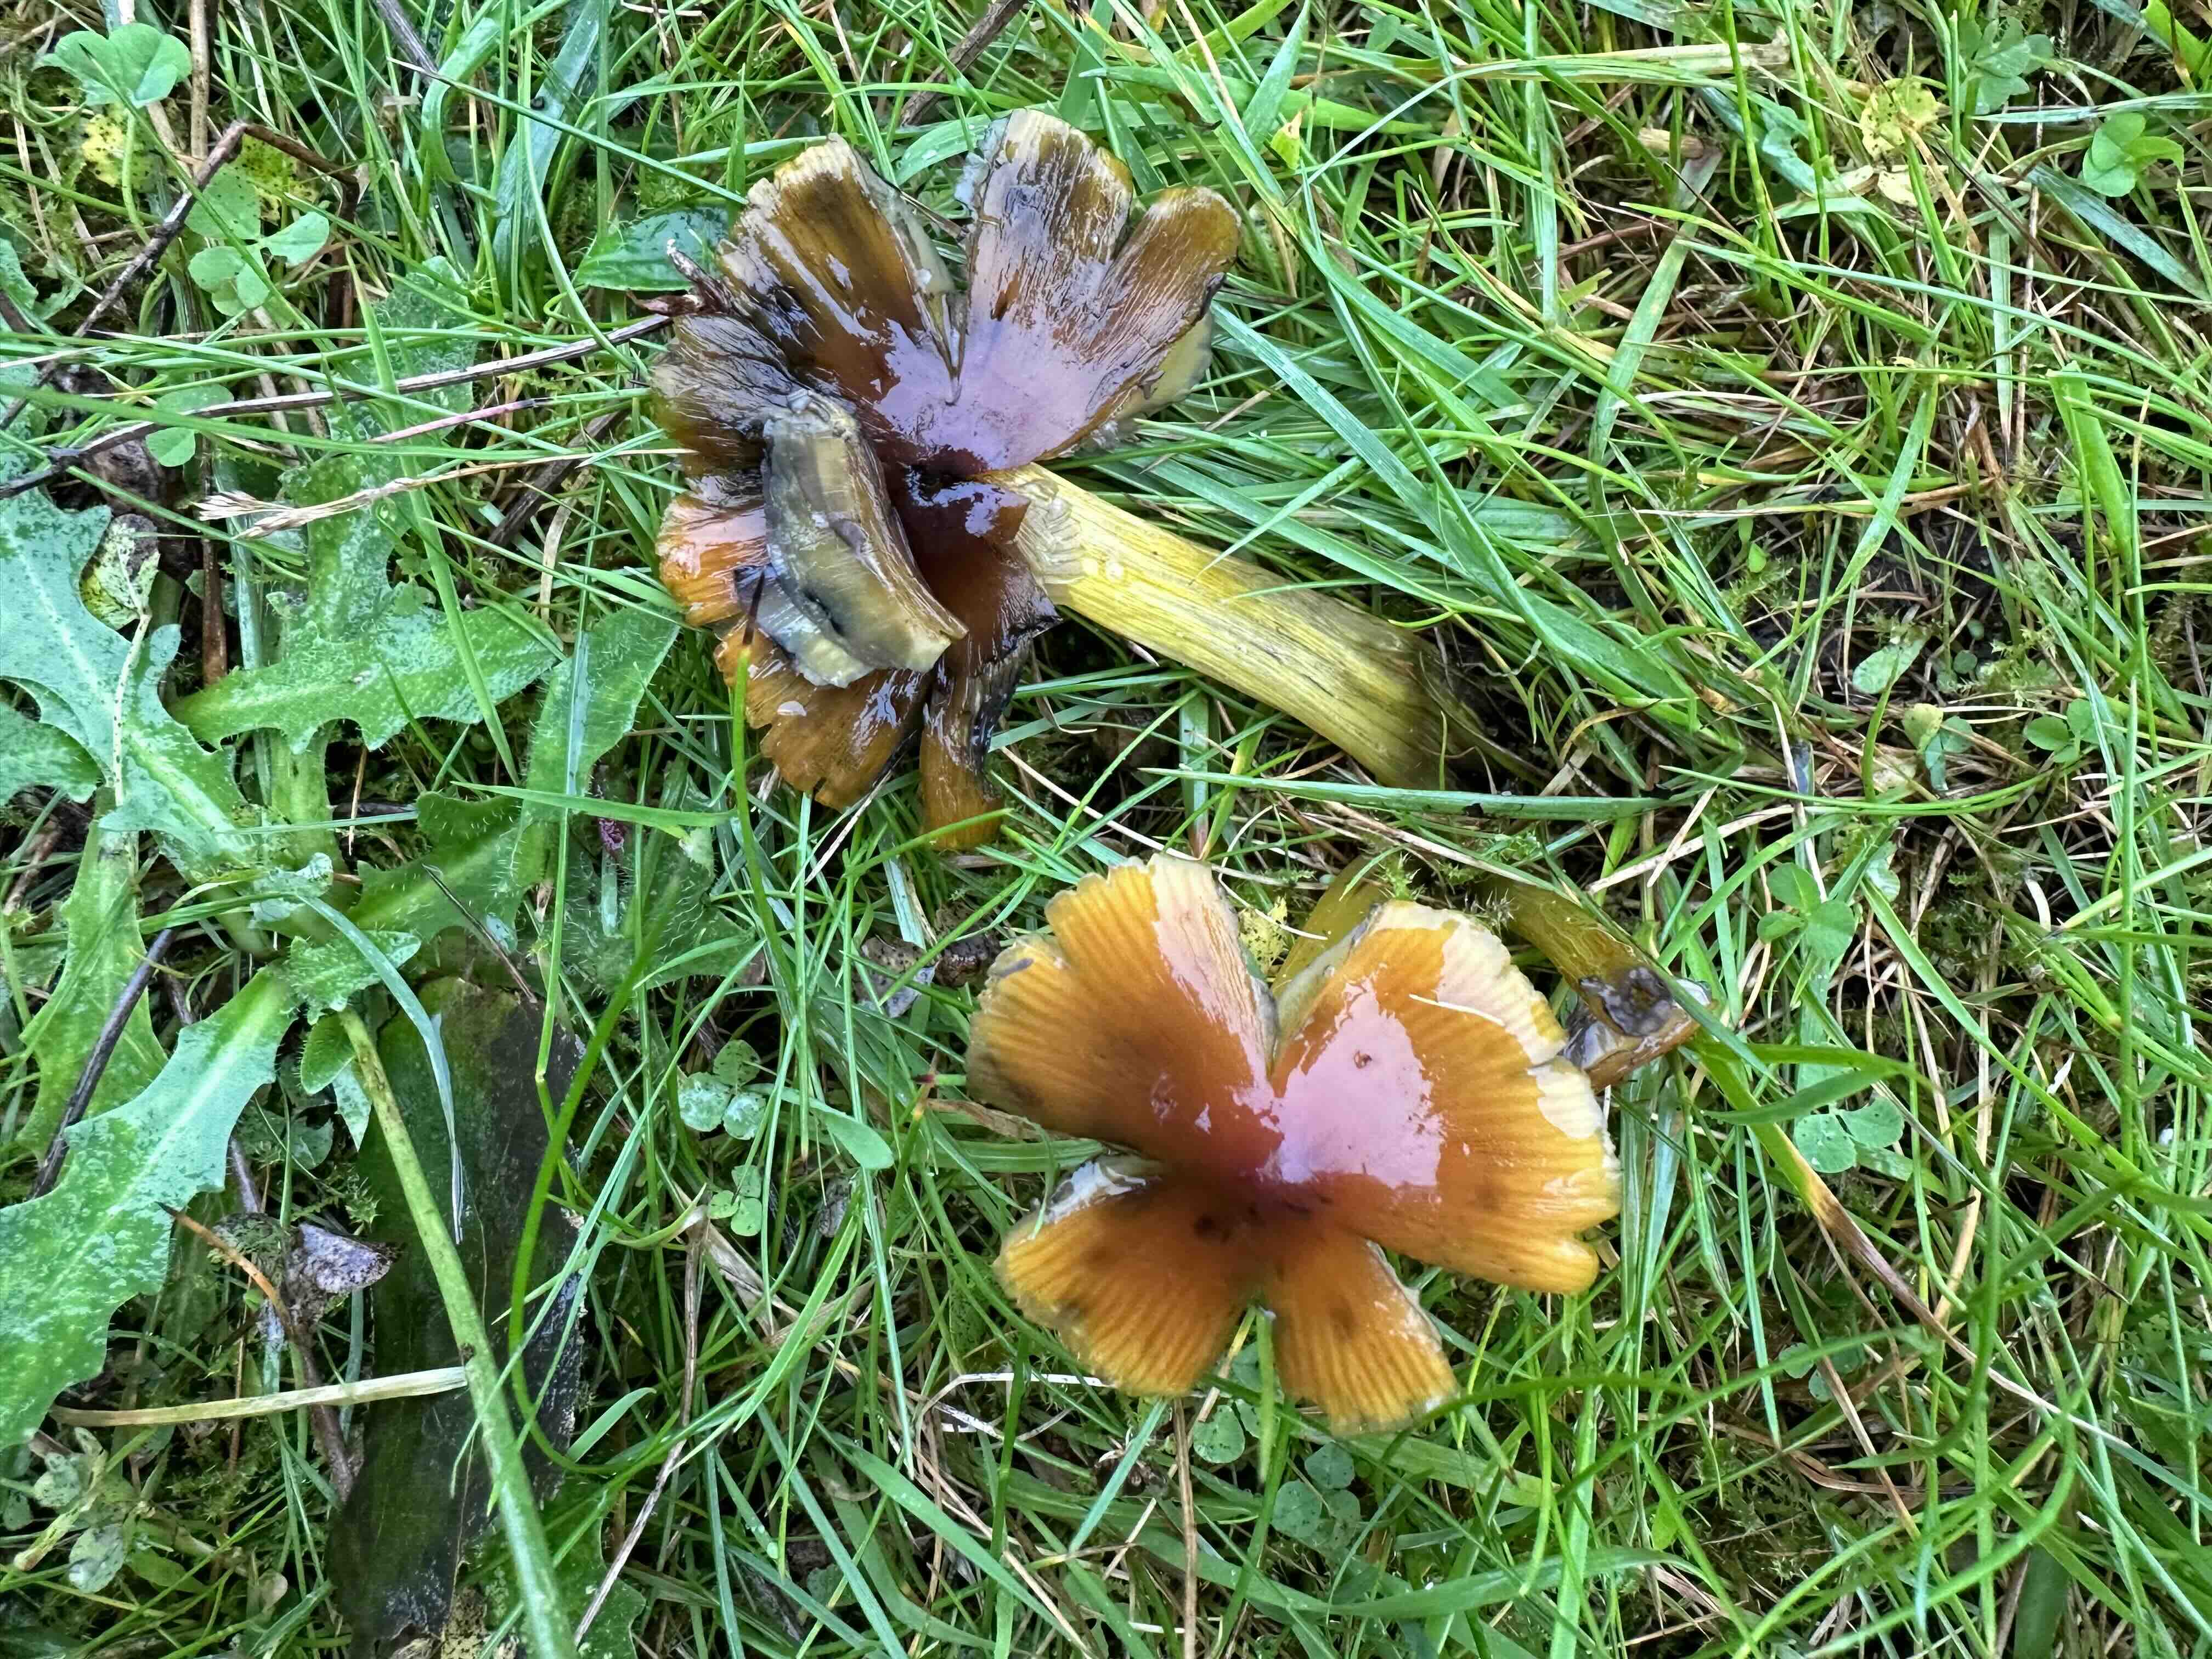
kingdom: Fungi
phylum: Basidiomycota
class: Agaricomycetes
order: Agaricales
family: Hygrophoraceae
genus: Hygrocybe
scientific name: Hygrocybe conica
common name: kegle-vokshat
